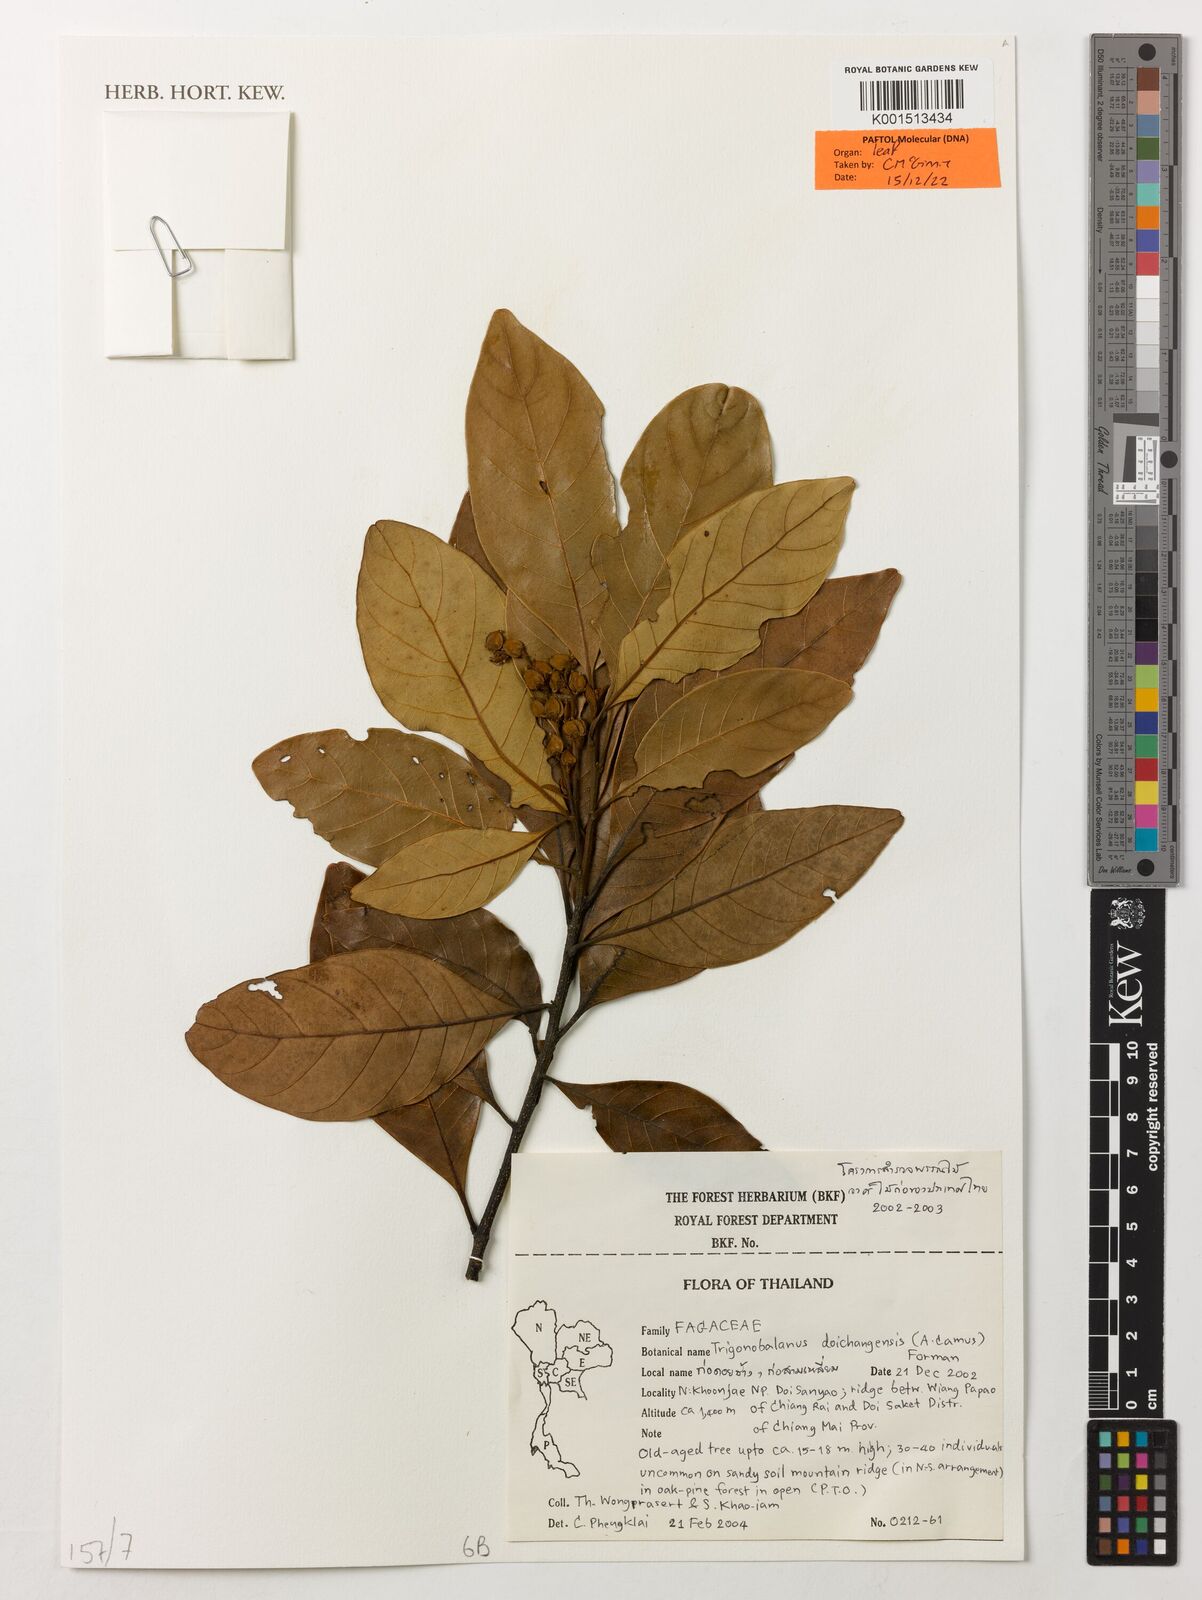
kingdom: Plantae
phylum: Tracheophyta
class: Magnoliopsida
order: Fagales
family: Fagaceae
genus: Trigonobalanus
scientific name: Trigonobalanus doichangensis
